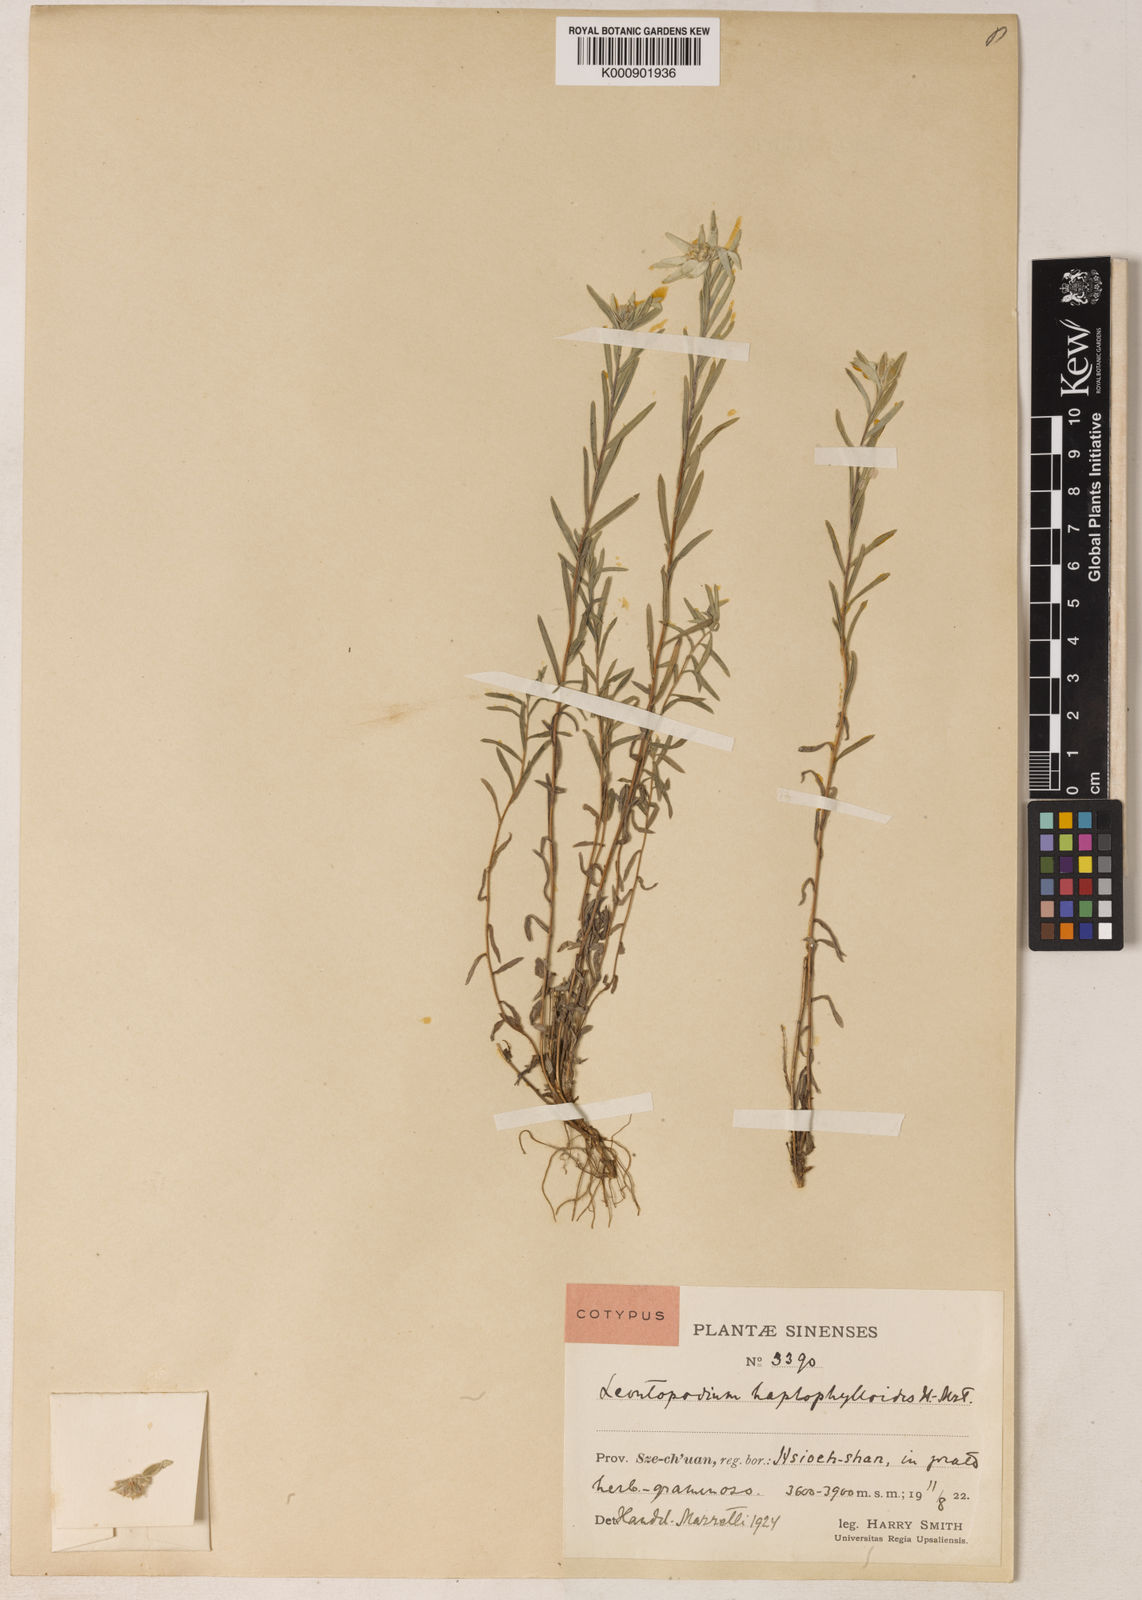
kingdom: Plantae
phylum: Tracheophyta
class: Magnoliopsida
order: Asterales
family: Asteraceae
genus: Leontopodium
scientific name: Leontopodium haplophylloides
